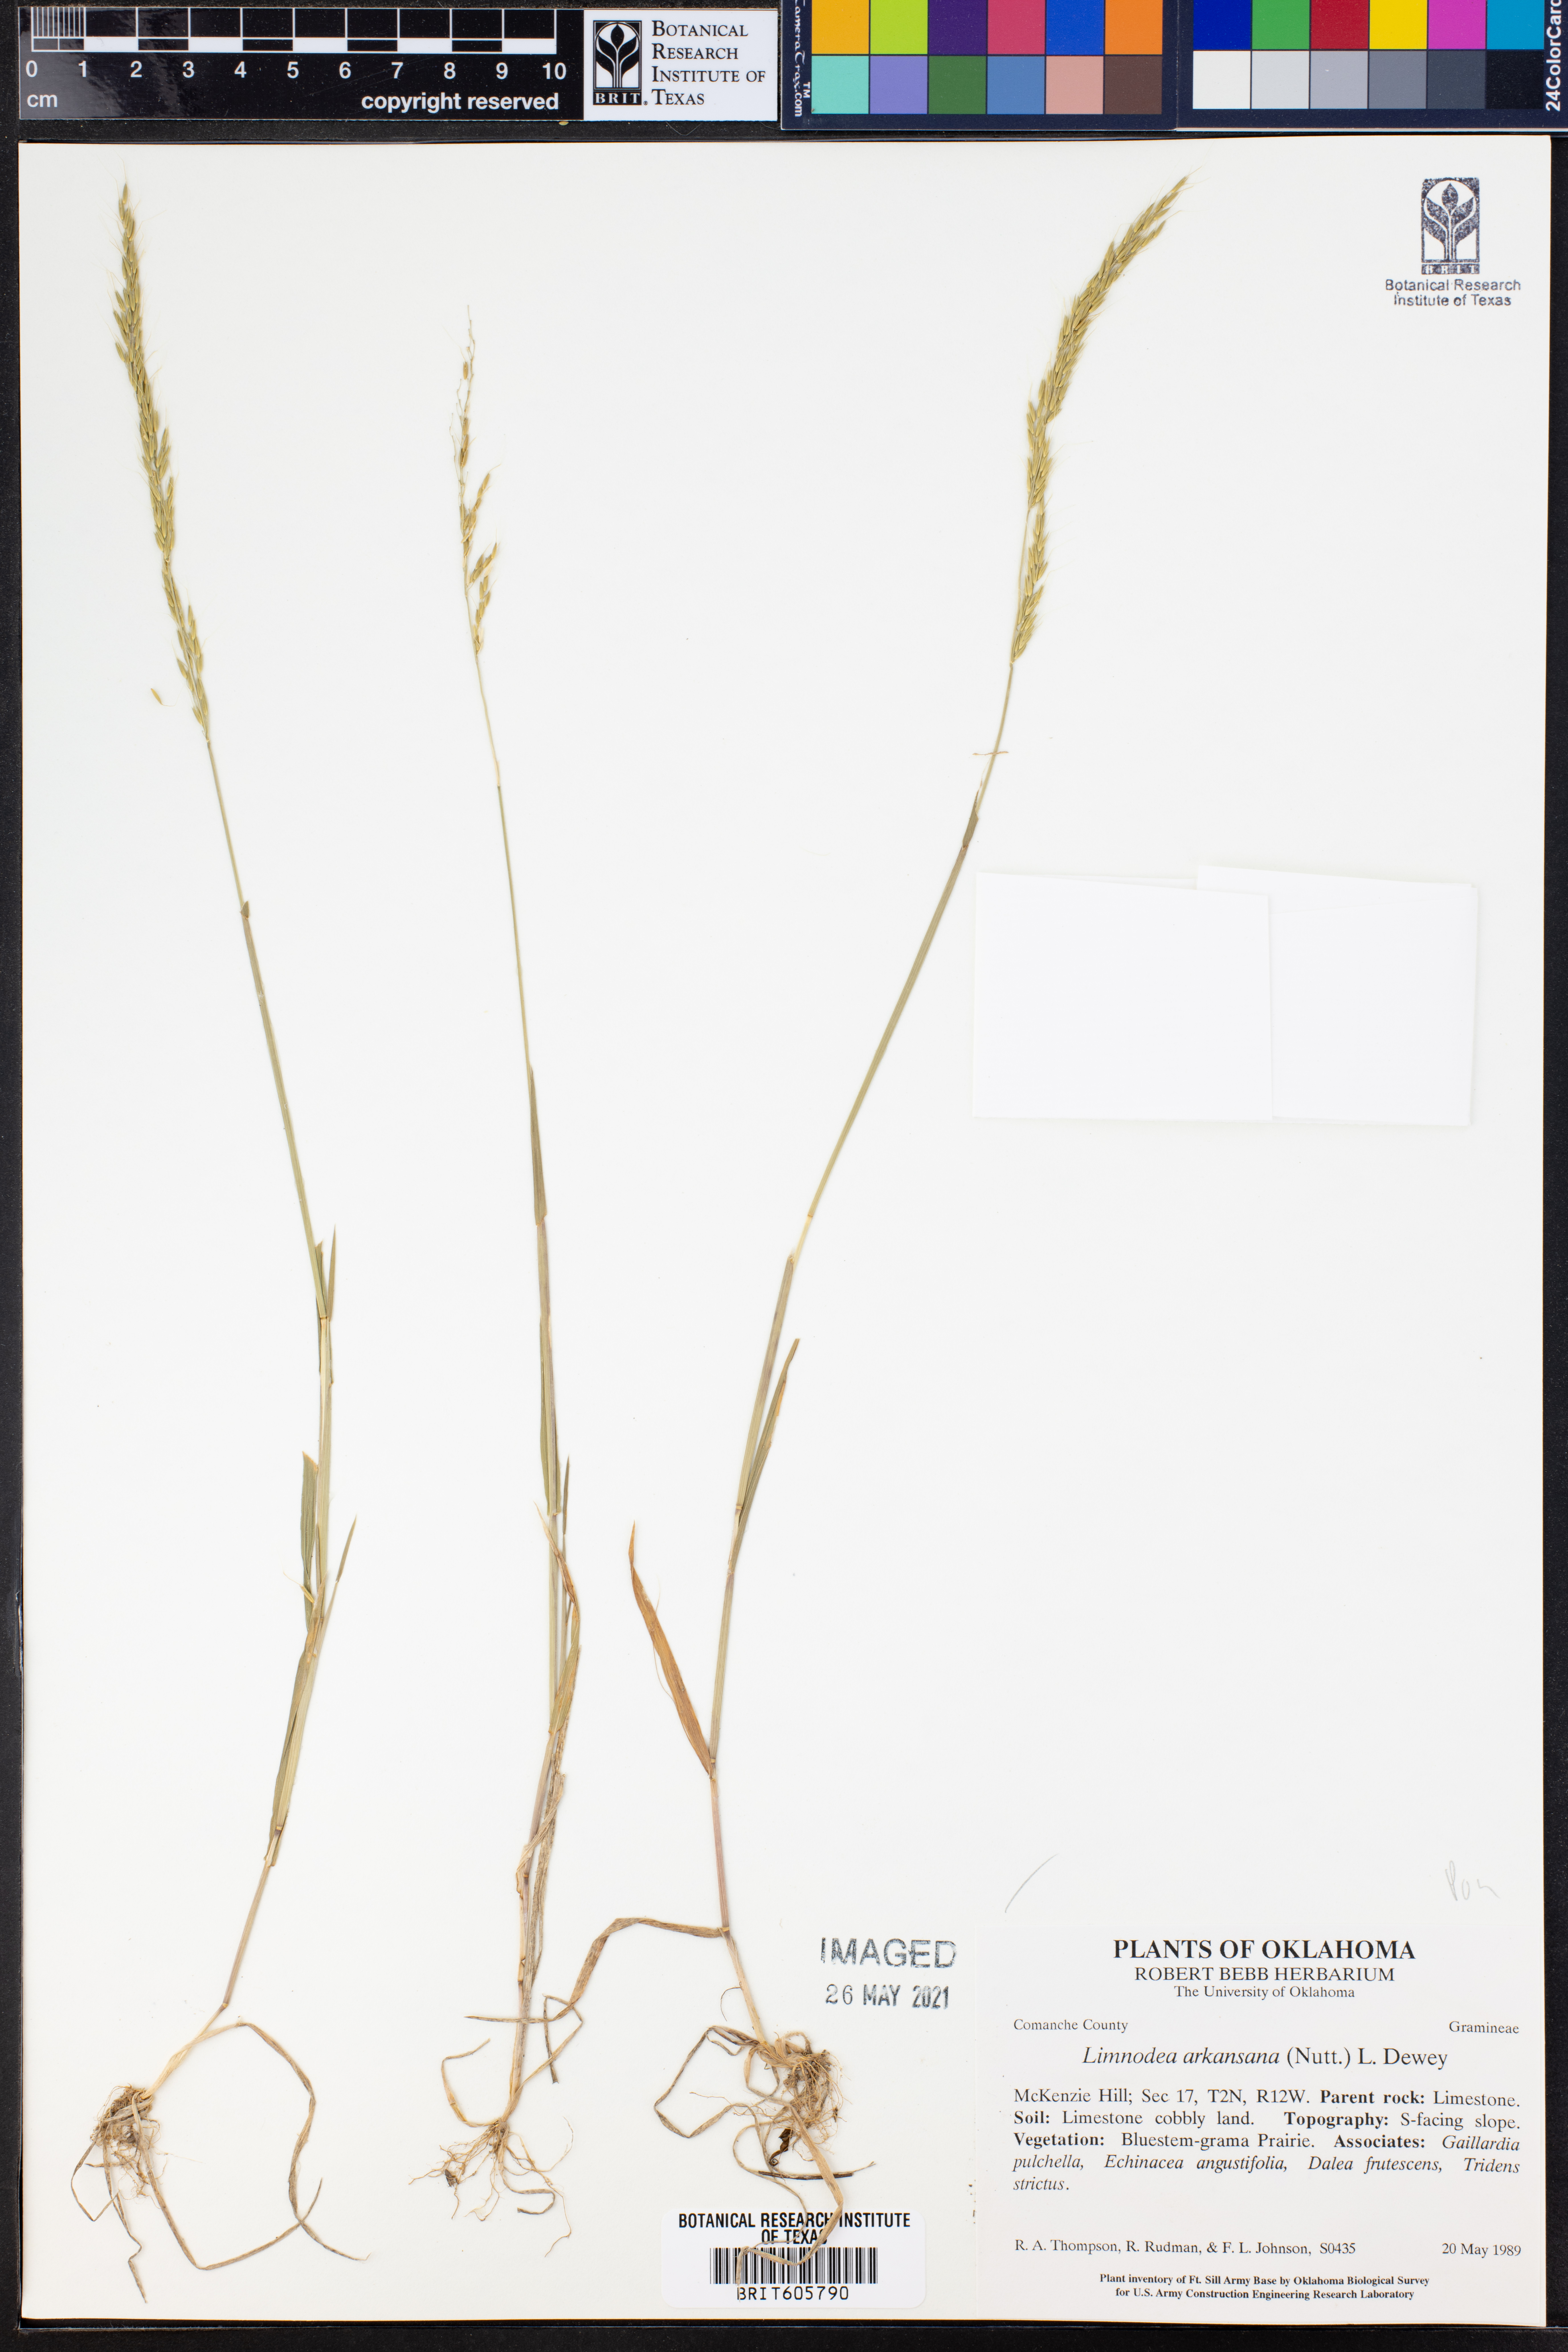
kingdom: Plantae
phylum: Tracheophyta
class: Liliopsida
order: Poales
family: Poaceae
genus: Limnodea
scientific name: Limnodea arkansana
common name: Ozark-grass
